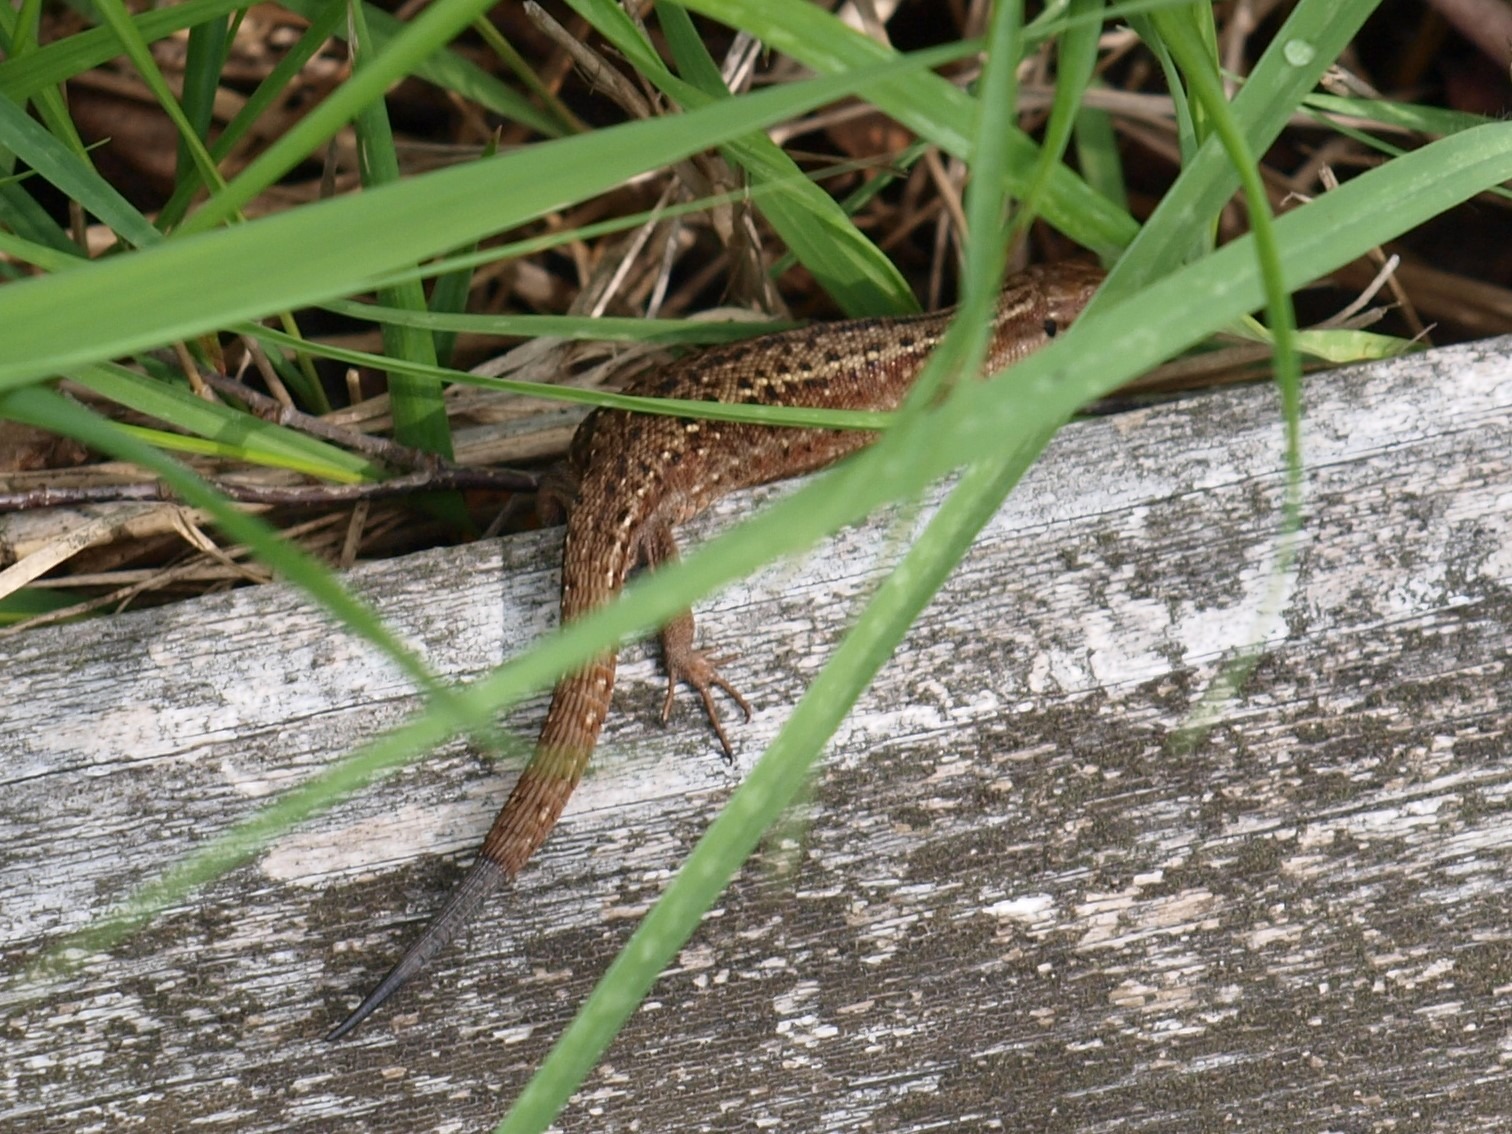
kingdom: Animalia
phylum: Chordata
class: Squamata
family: Lacertidae
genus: Zootoca
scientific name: Zootoca vivipara
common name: Skovfirben
